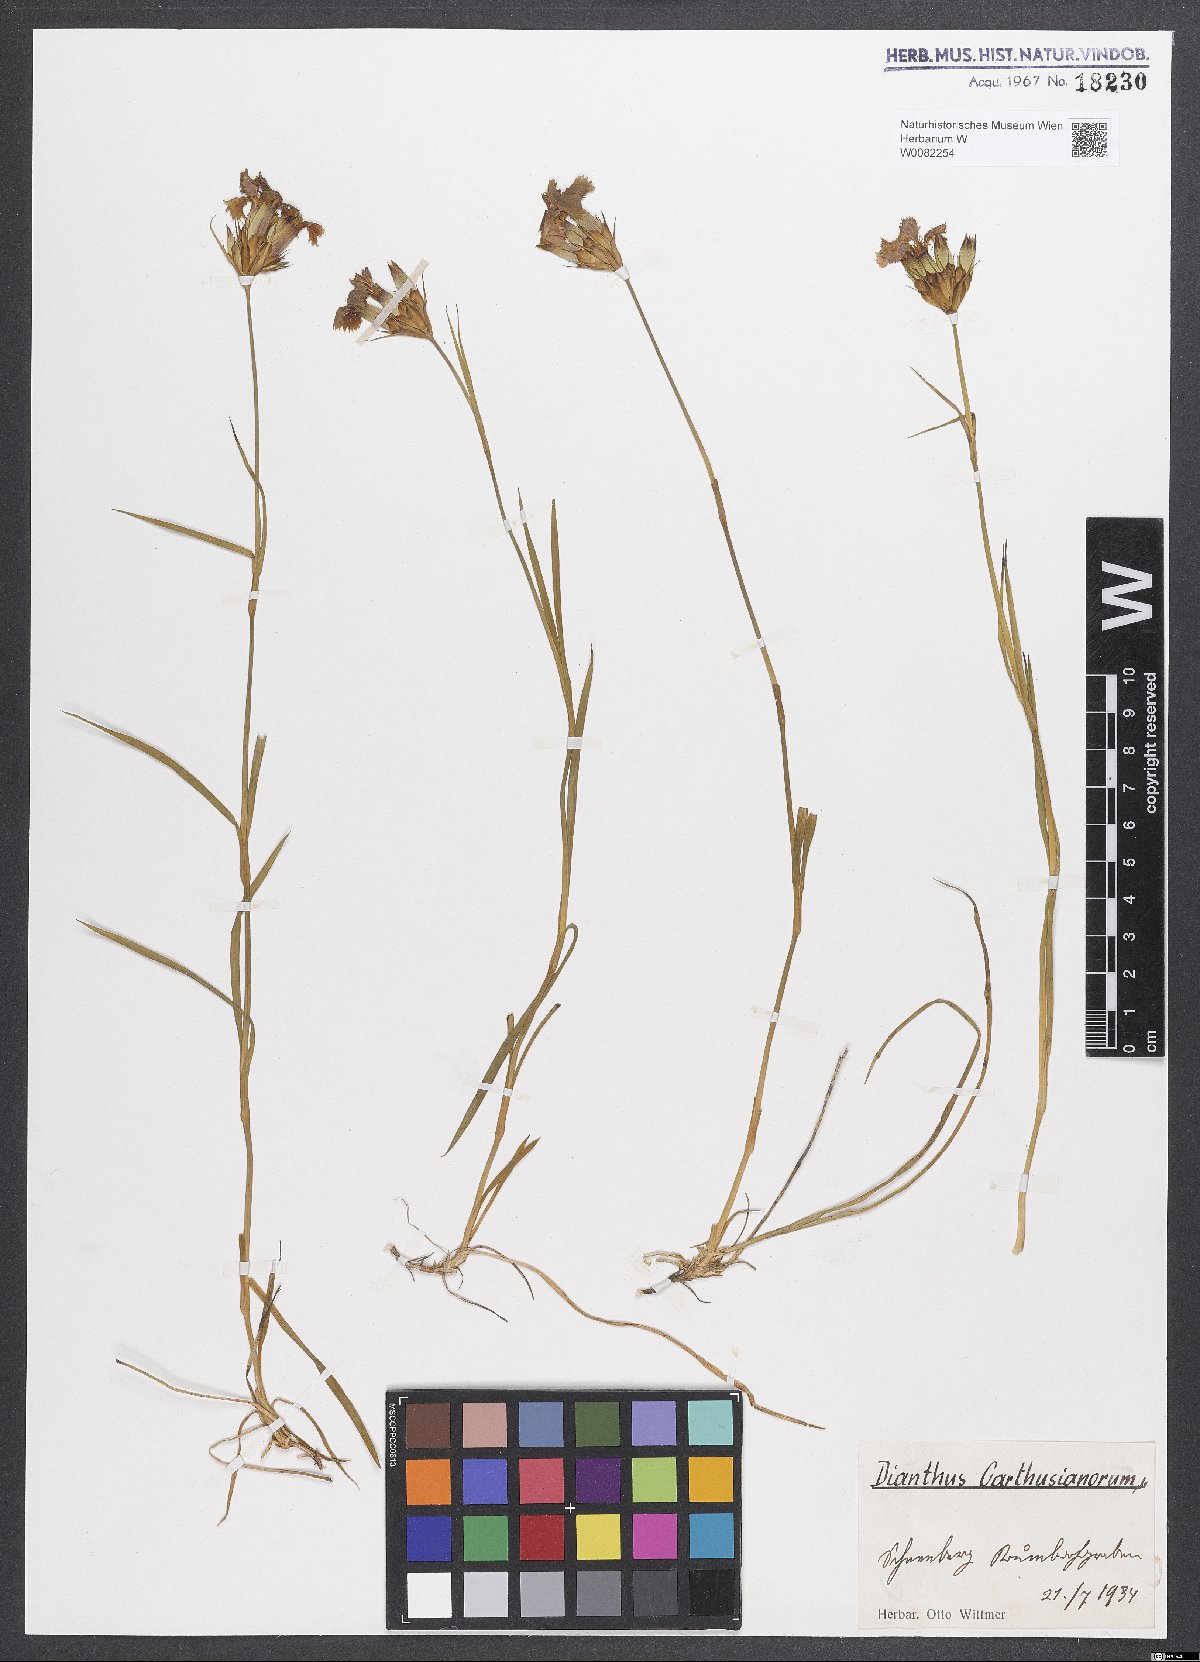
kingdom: Plantae
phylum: Tracheophyta
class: Magnoliopsida
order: Caryophyllales
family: Caryophyllaceae
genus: Dianthus
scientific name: Dianthus carthusianorum
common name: Carthusian pink
